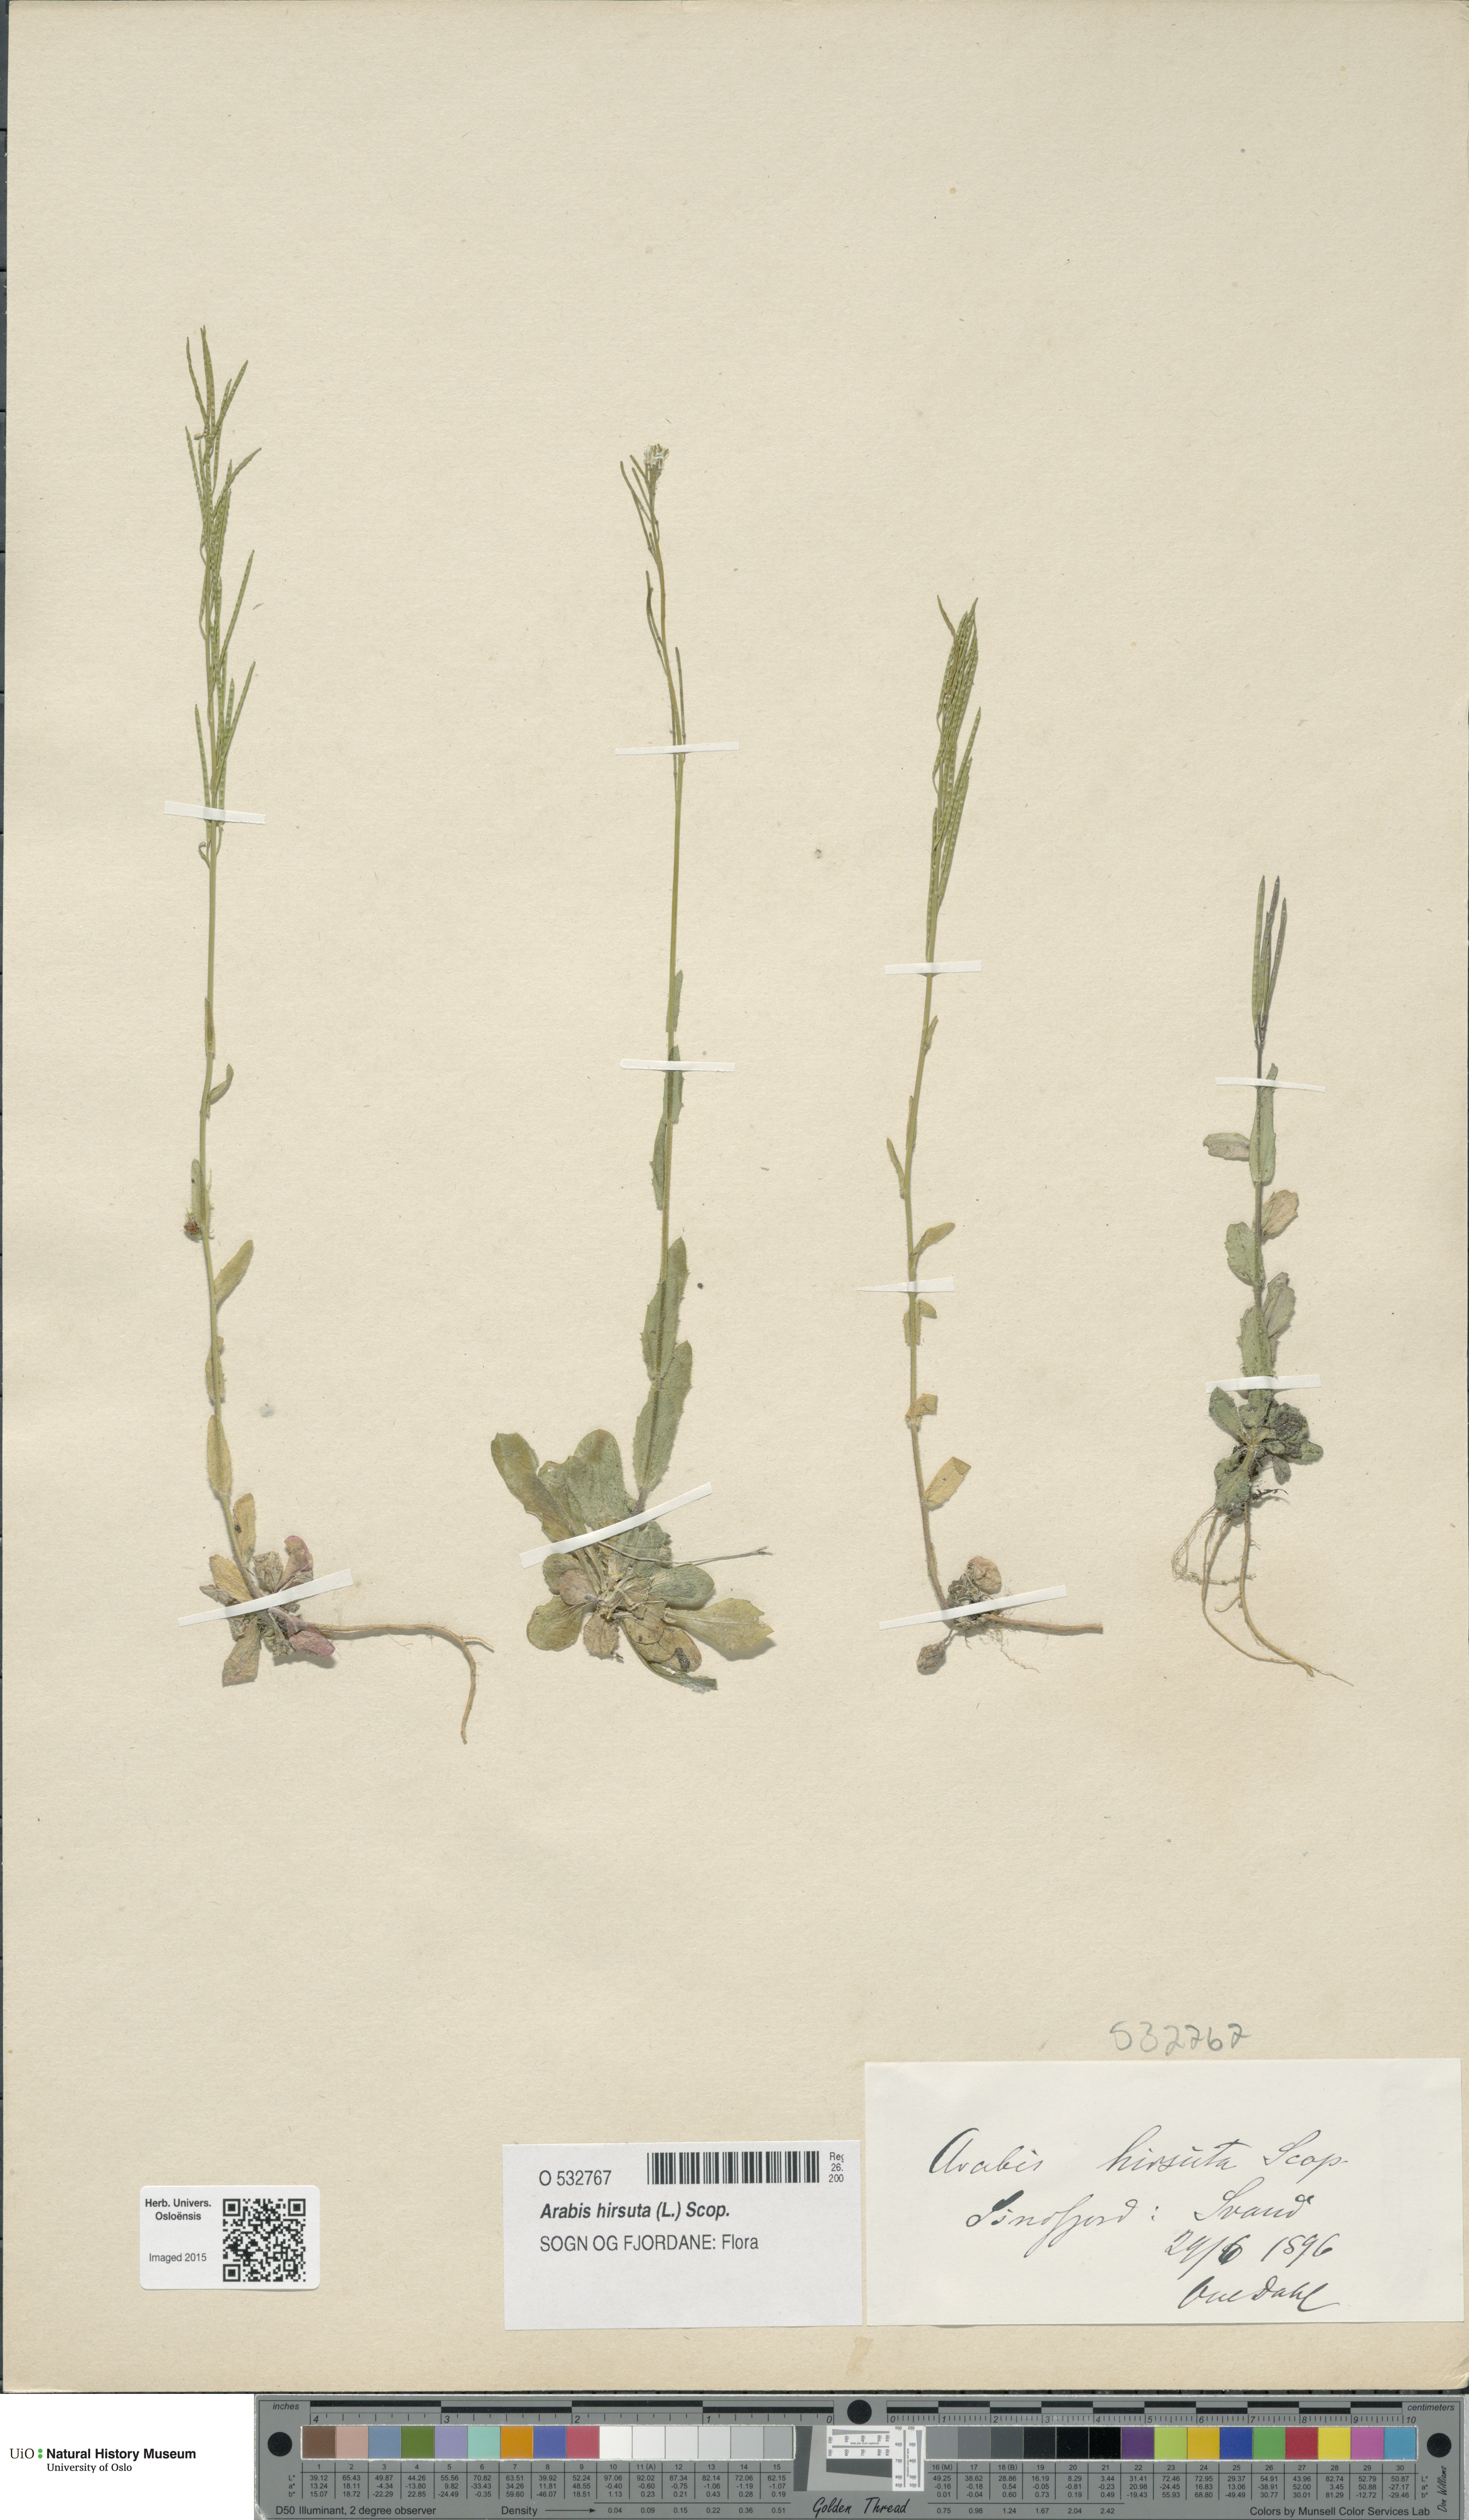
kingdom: Plantae
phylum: Tracheophyta
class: Magnoliopsida
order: Brassicales
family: Brassicaceae
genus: Arabis
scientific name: Arabis hirsuta
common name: Hairy rock-cress
